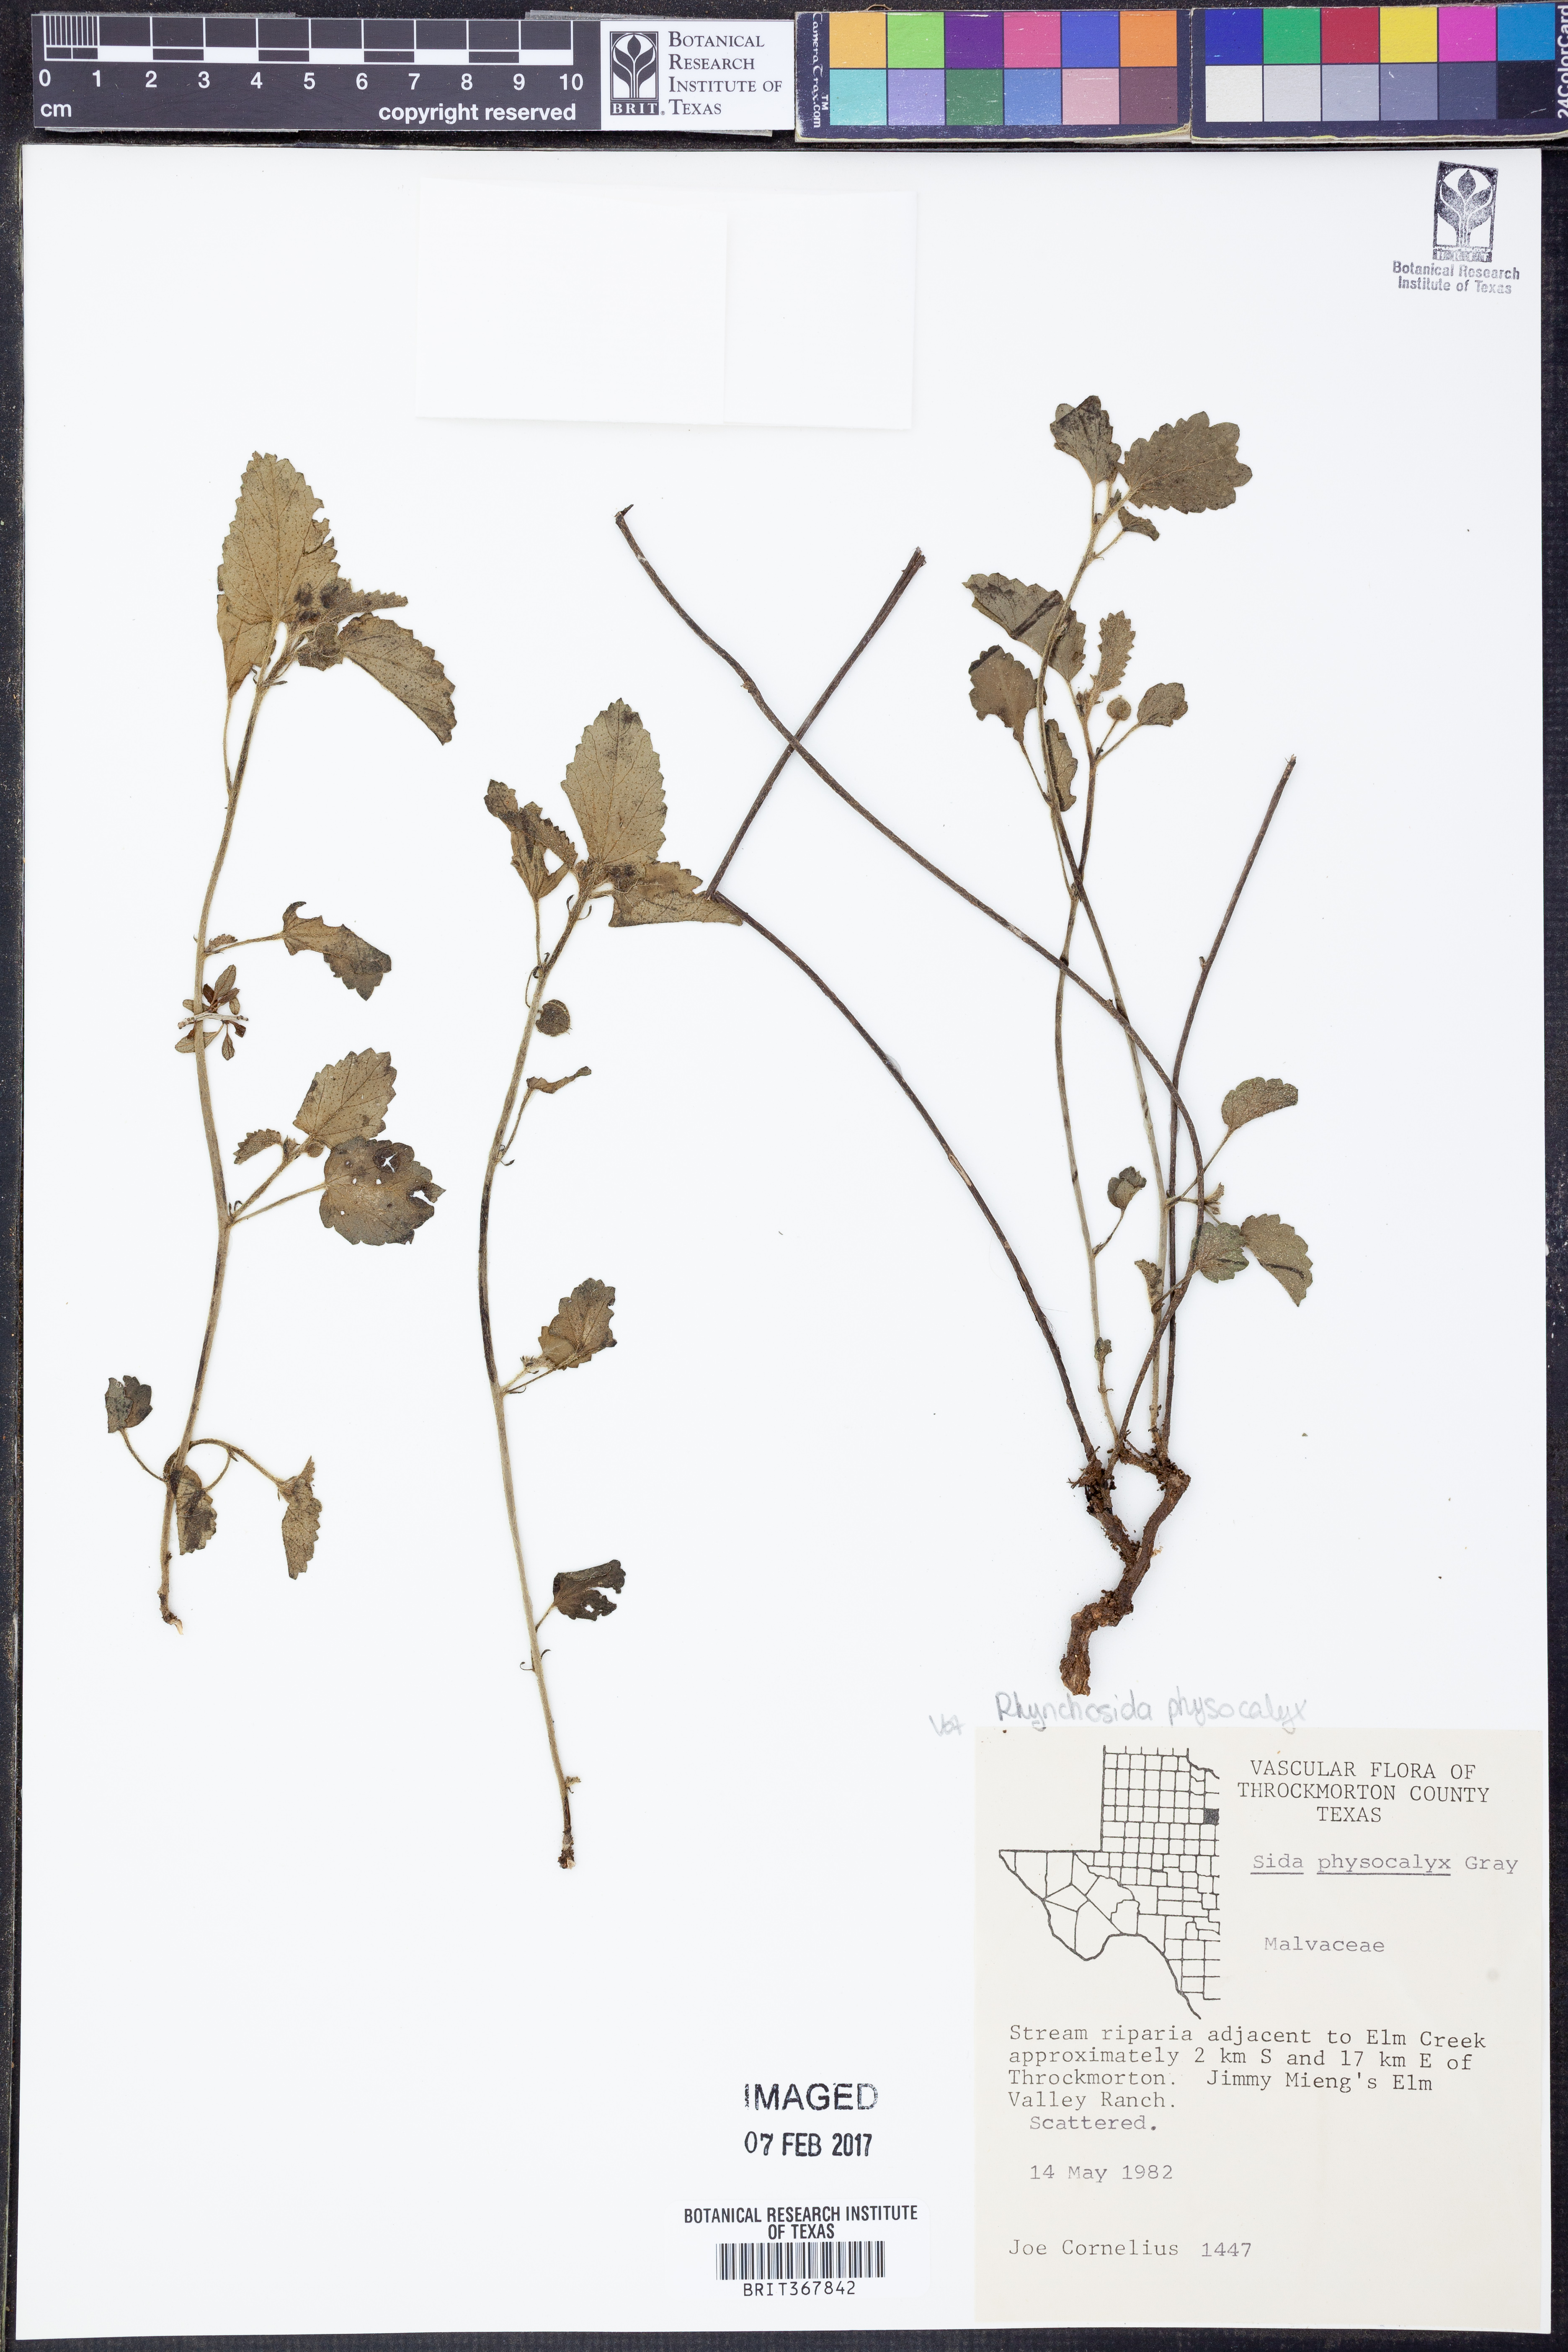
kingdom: Plantae
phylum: Tracheophyta
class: Magnoliopsida
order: Malvales
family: Malvaceae
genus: Rhynchosida
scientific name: Rhynchosida physocalyx
